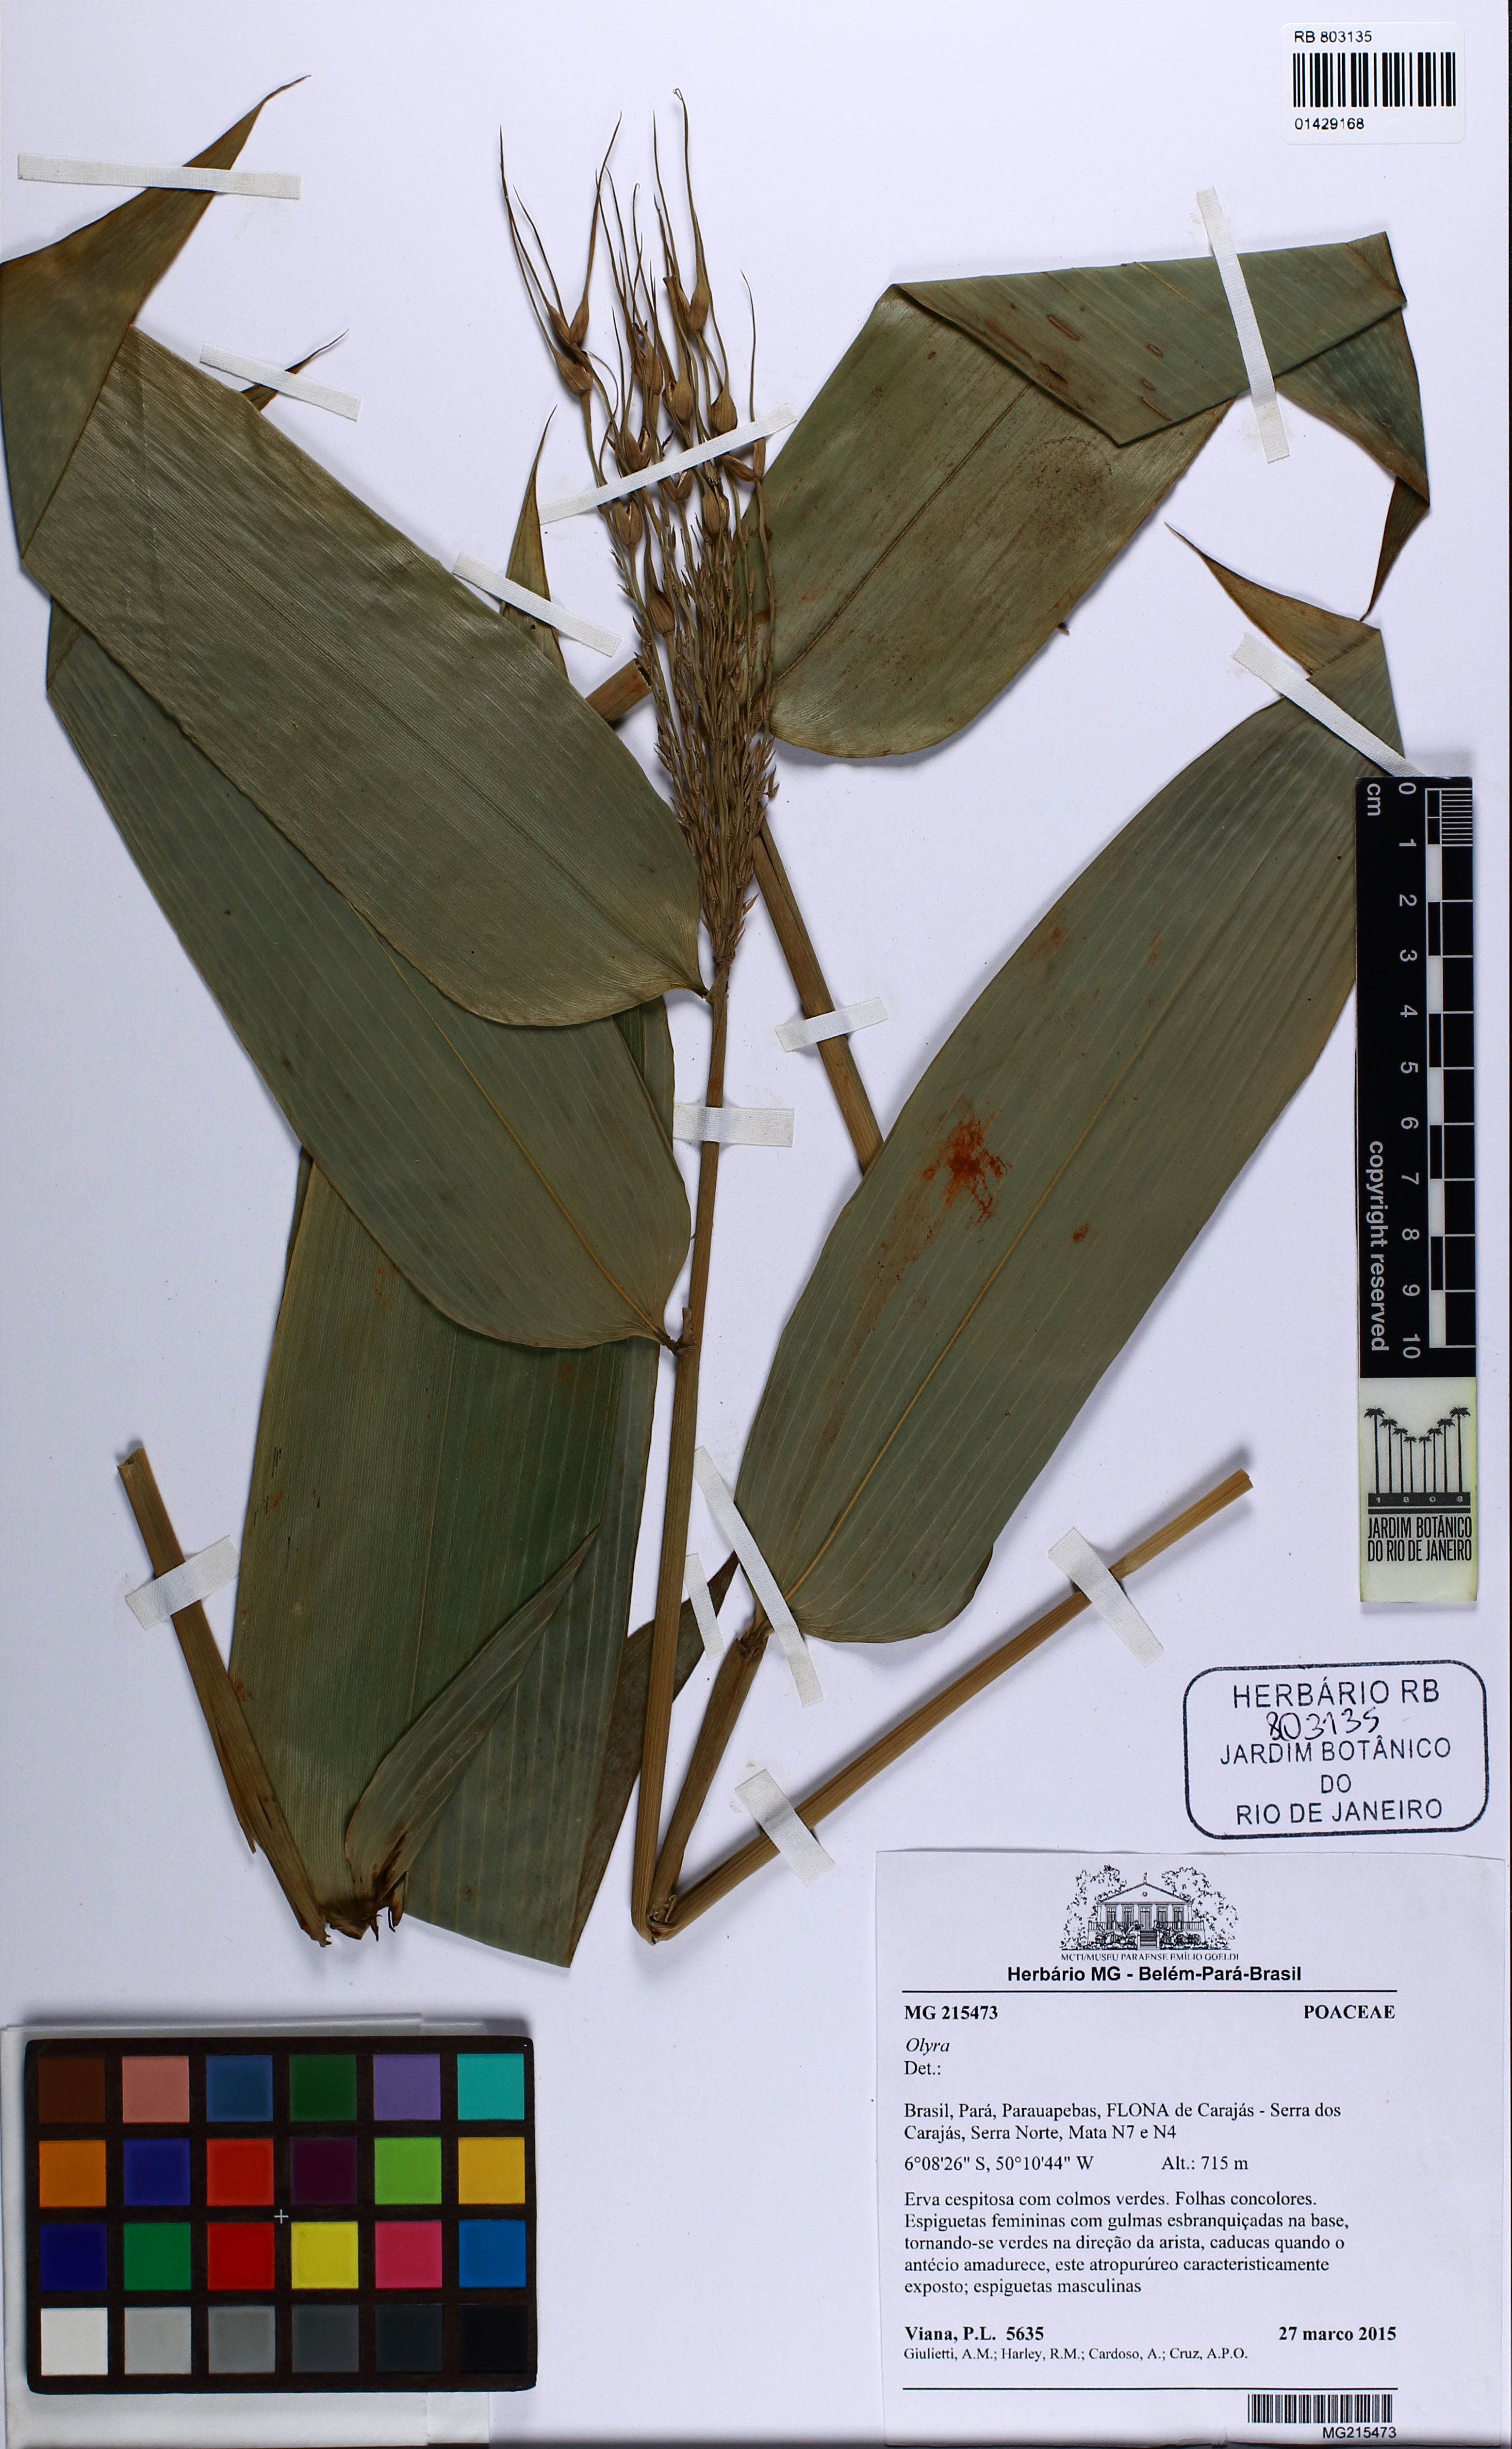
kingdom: Plantae
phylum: Tracheophyta
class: Liliopsida
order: Poales
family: Poaceae
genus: Olyra
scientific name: Olyra
